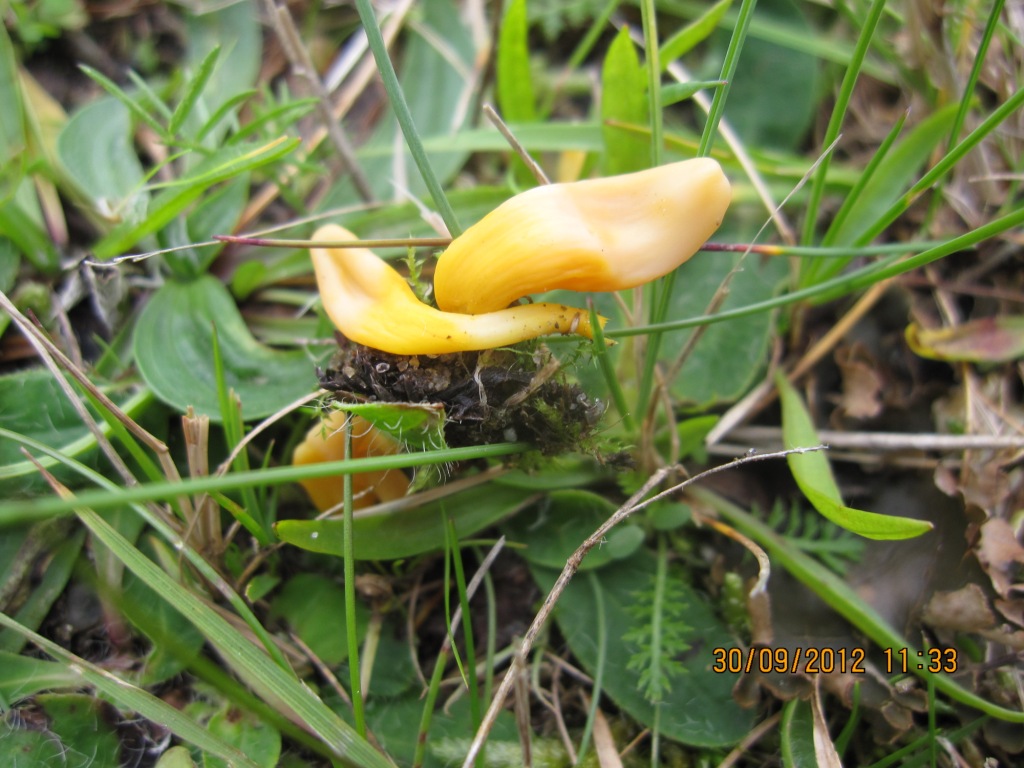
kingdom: Fungi
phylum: Basidiomycota
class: Agaricomycetes
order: Agaricales
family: Clavariaceae
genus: Clavulinopsis
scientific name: Clavulinopsis laeticolor
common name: flamme-køllesvamp
